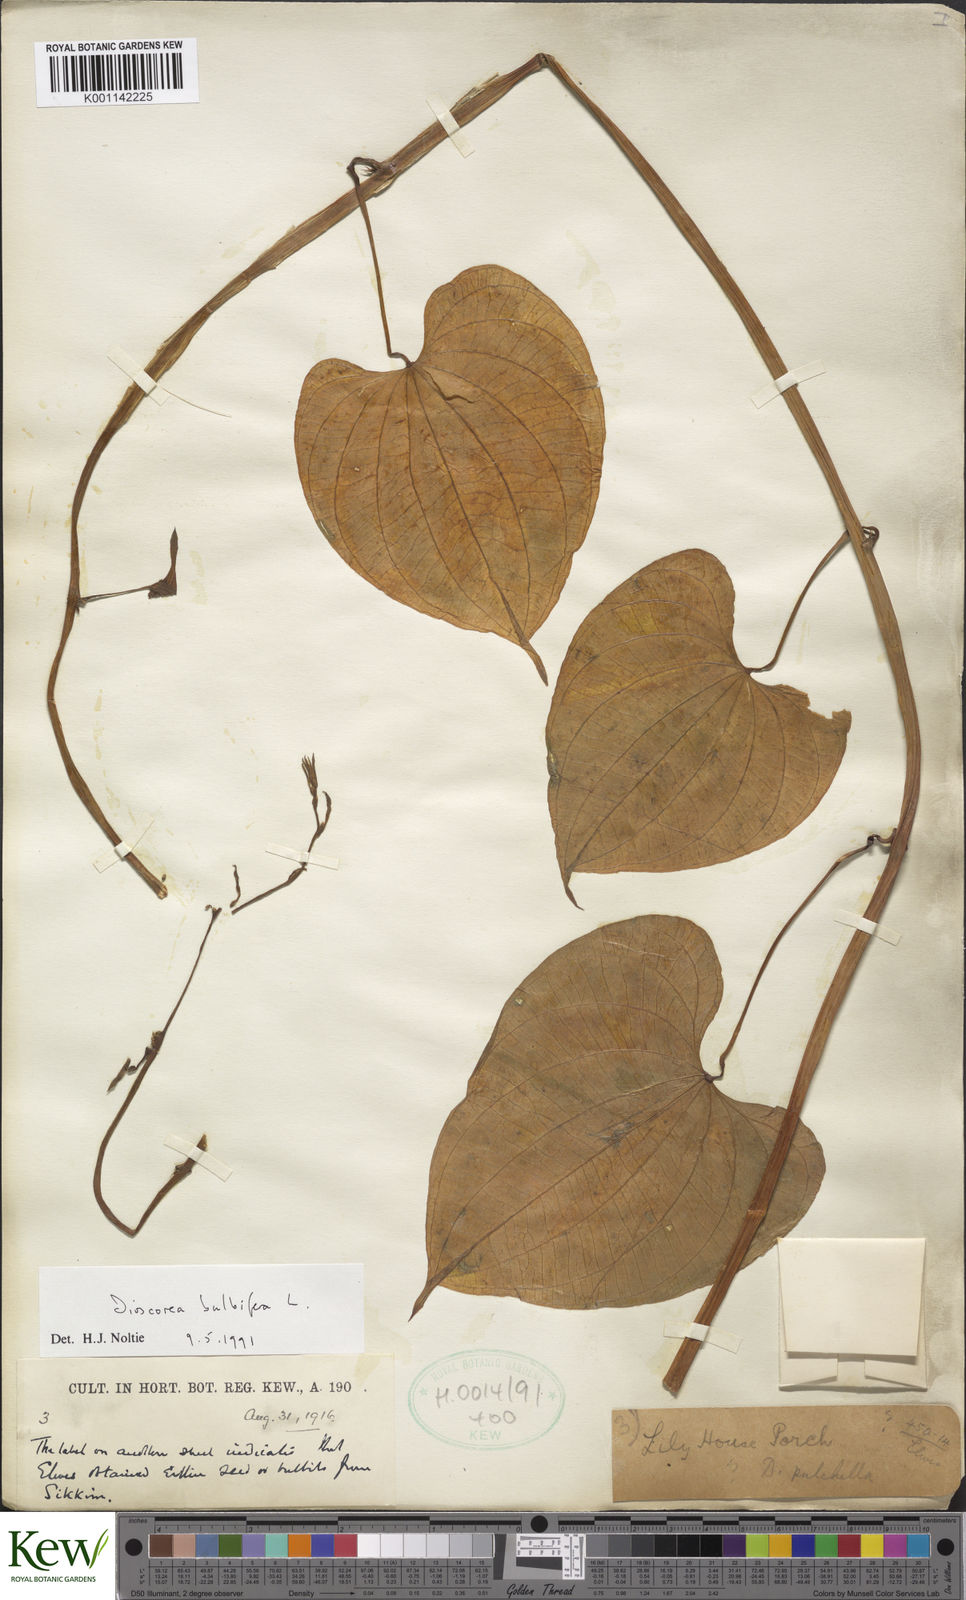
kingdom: Plantae
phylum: Tracheophyta
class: Liliopsida
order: Dioscoreales
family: Dioscoreaceae
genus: Dioscorea
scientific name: Dioscorea bulbifera
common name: Air yam
